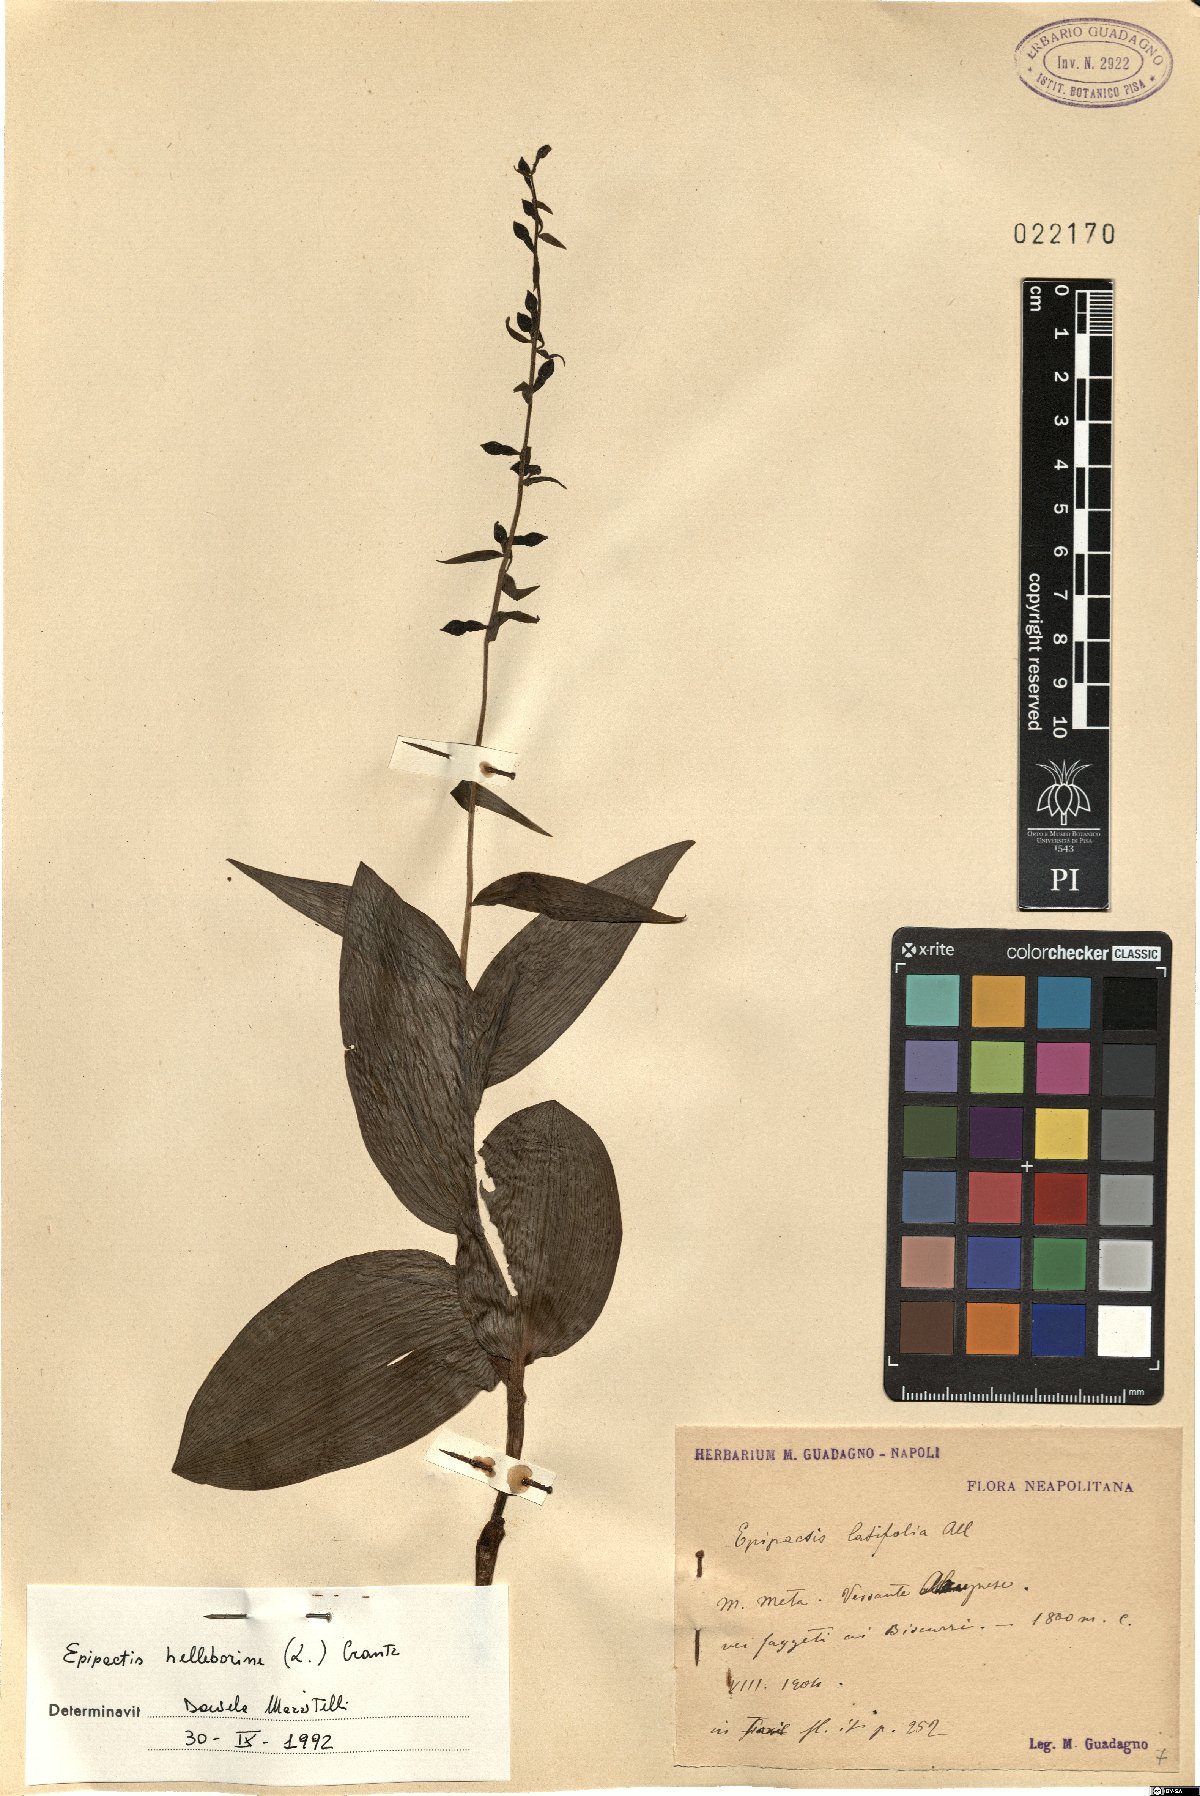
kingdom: Plantae
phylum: Tracheophyta
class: Liliopsida
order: Asparagales
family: Orchidaceae
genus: Epipactis
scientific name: Epipactis helleborine
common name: Broad-leaved helleborine
